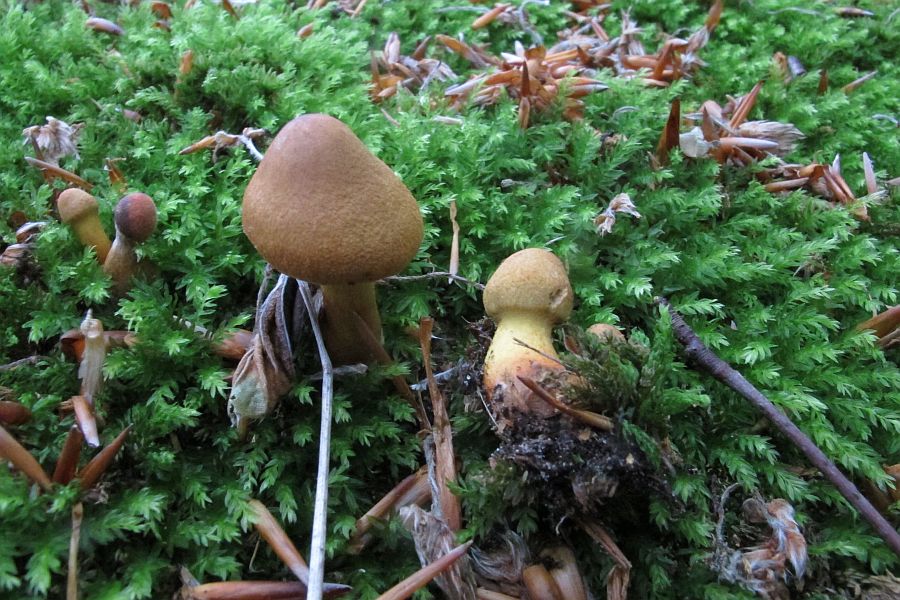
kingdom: Fungi
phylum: Basidiomycota
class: Agaricomycetes
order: Agaricales
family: Cortinariaceae
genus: Cortinarius
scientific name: Cortinarius cinnamomeus
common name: kanel-slørhat
